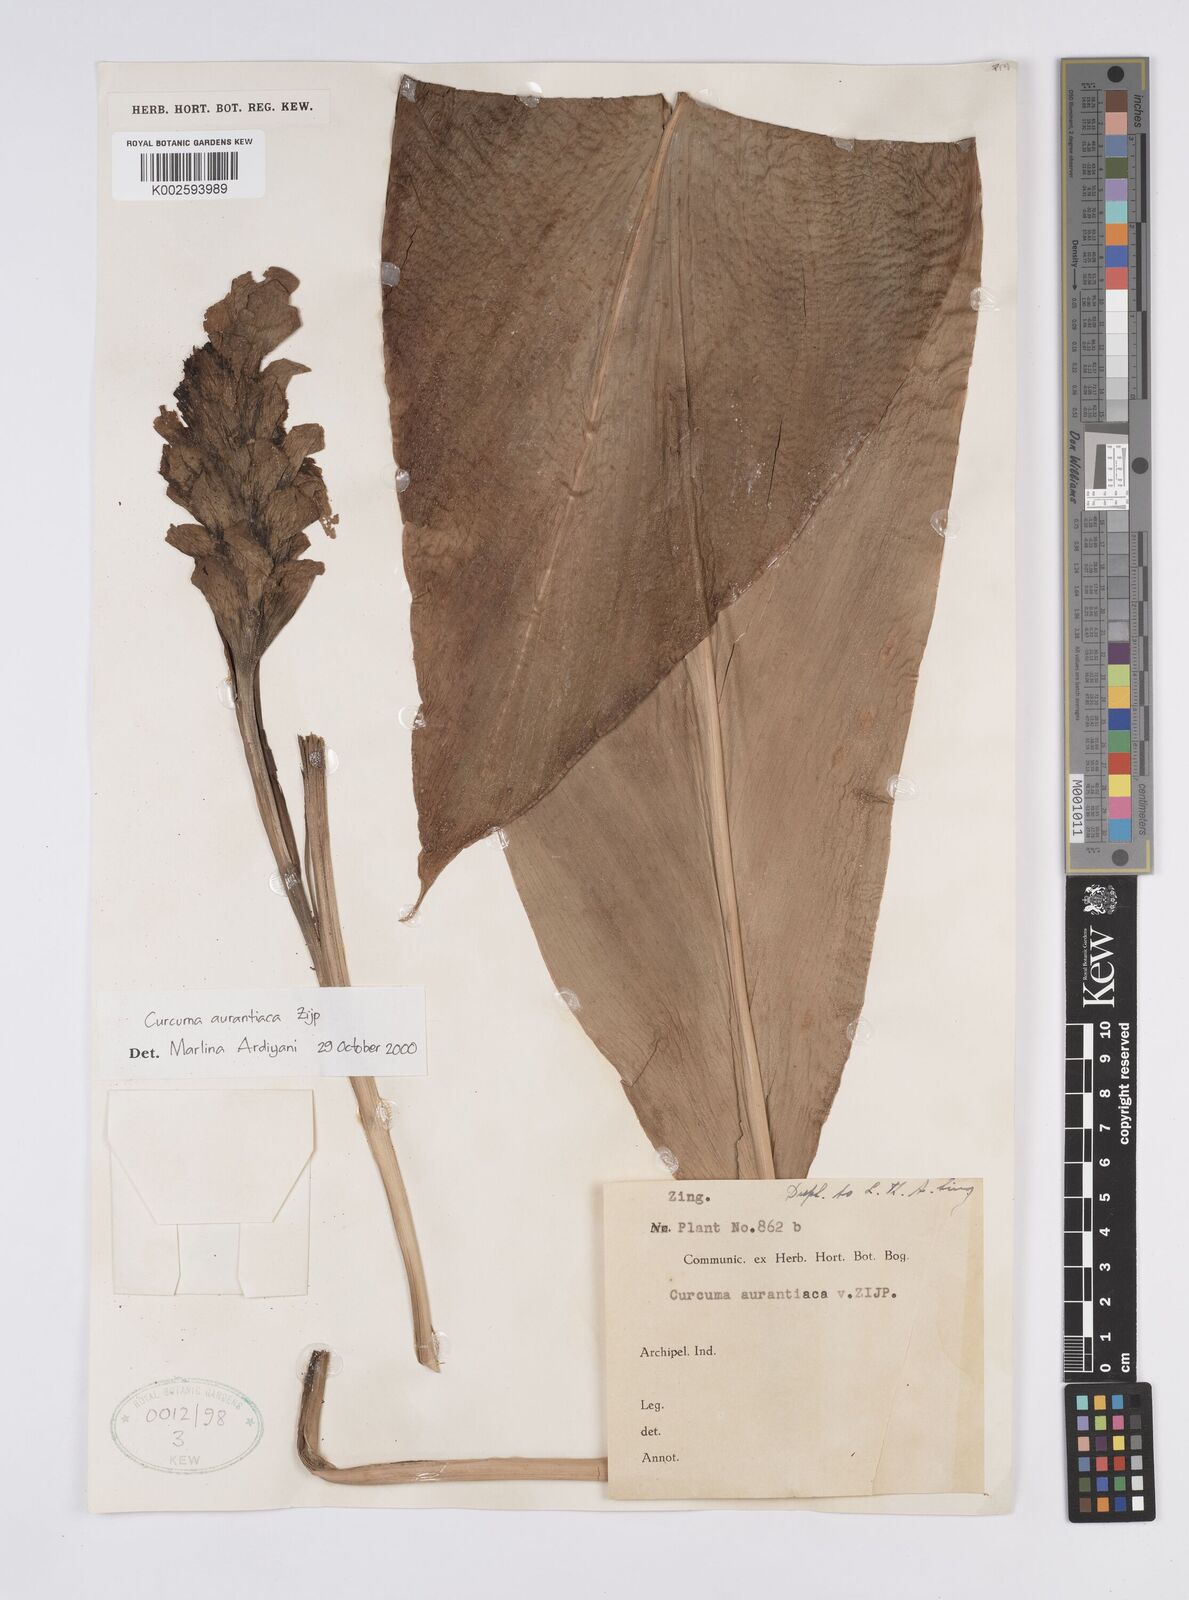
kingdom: Plantae
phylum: Tracheophyta
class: Liliopsida
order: Zingiberales
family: Zingiberaceae
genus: Curcuma
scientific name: Curcuma aurantiaca
